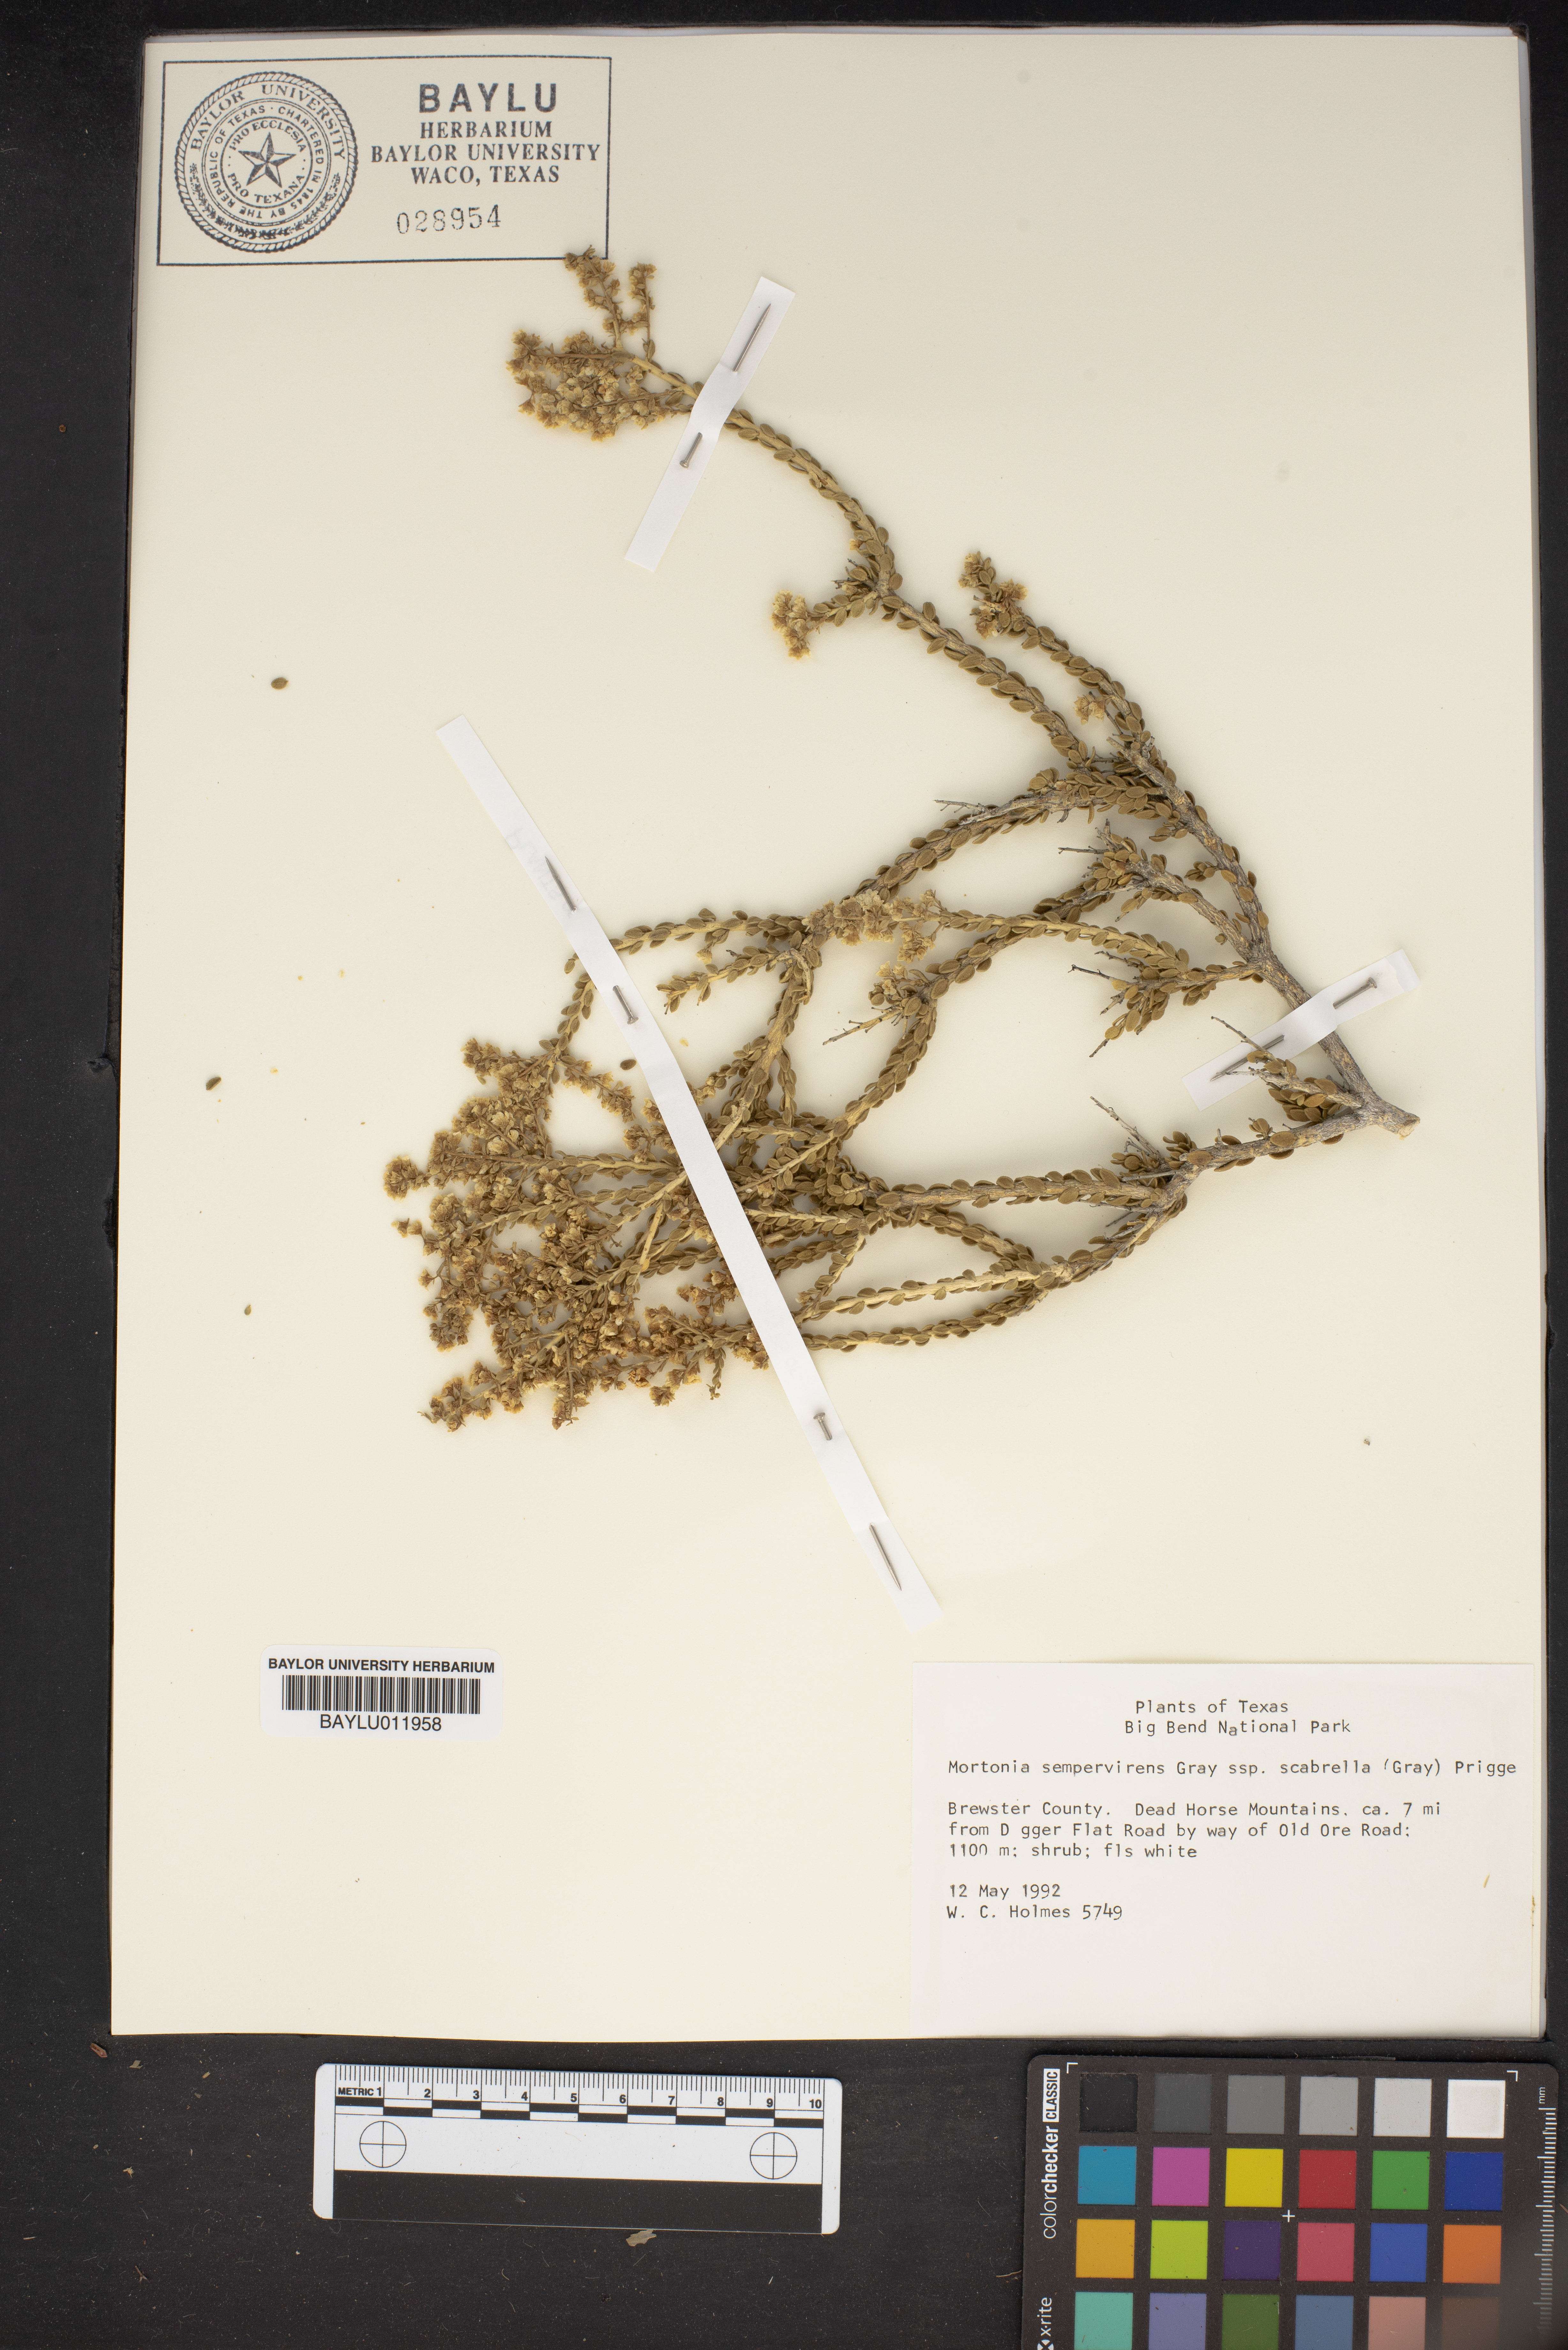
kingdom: Plantae
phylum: Tracheophyta
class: Magnoliopsida
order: Celastrales
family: Celastraceae
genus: Mortonia
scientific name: Mortonia scabrella
